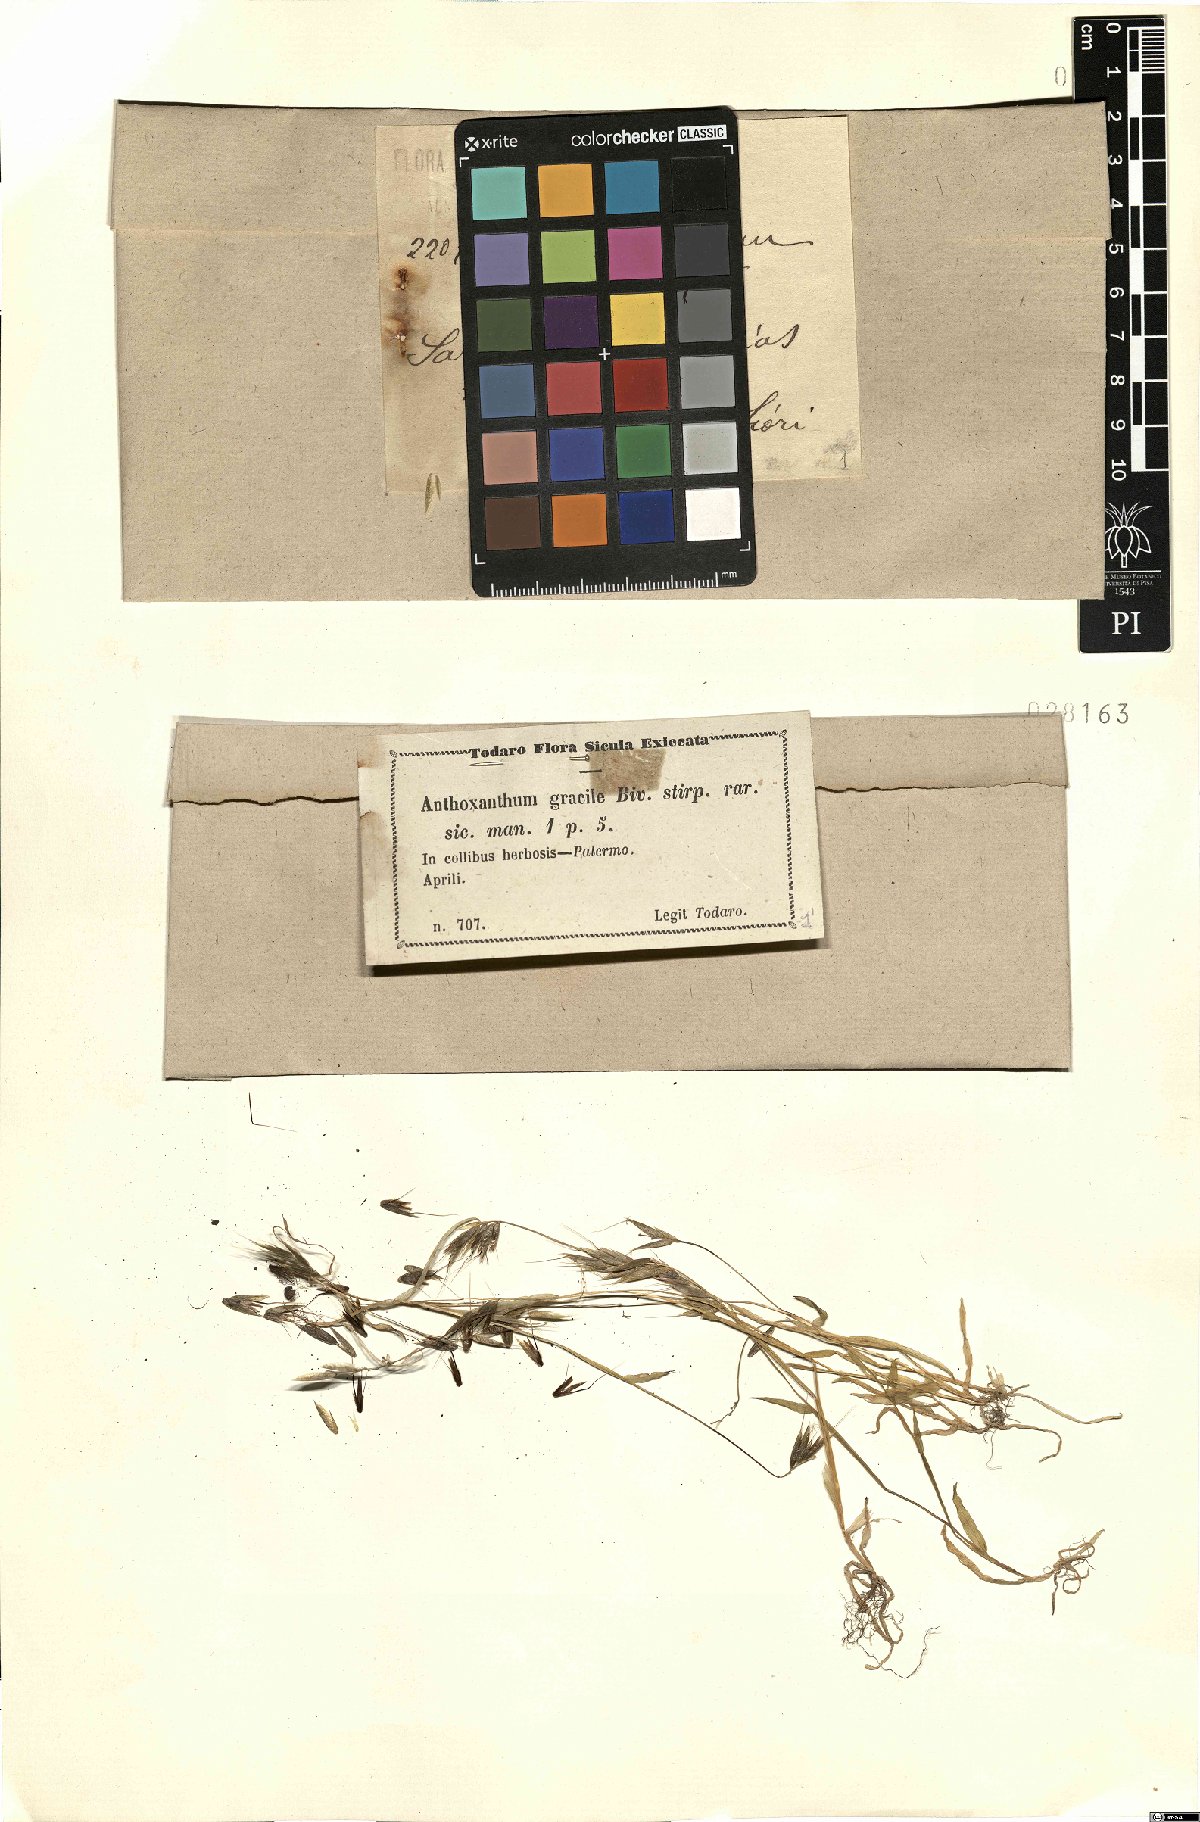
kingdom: Plantae
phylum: Tracheophyta
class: Liliopsida
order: Poales
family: Poaceae
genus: Anthoxanthum
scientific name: Anthoxanthum gracile
